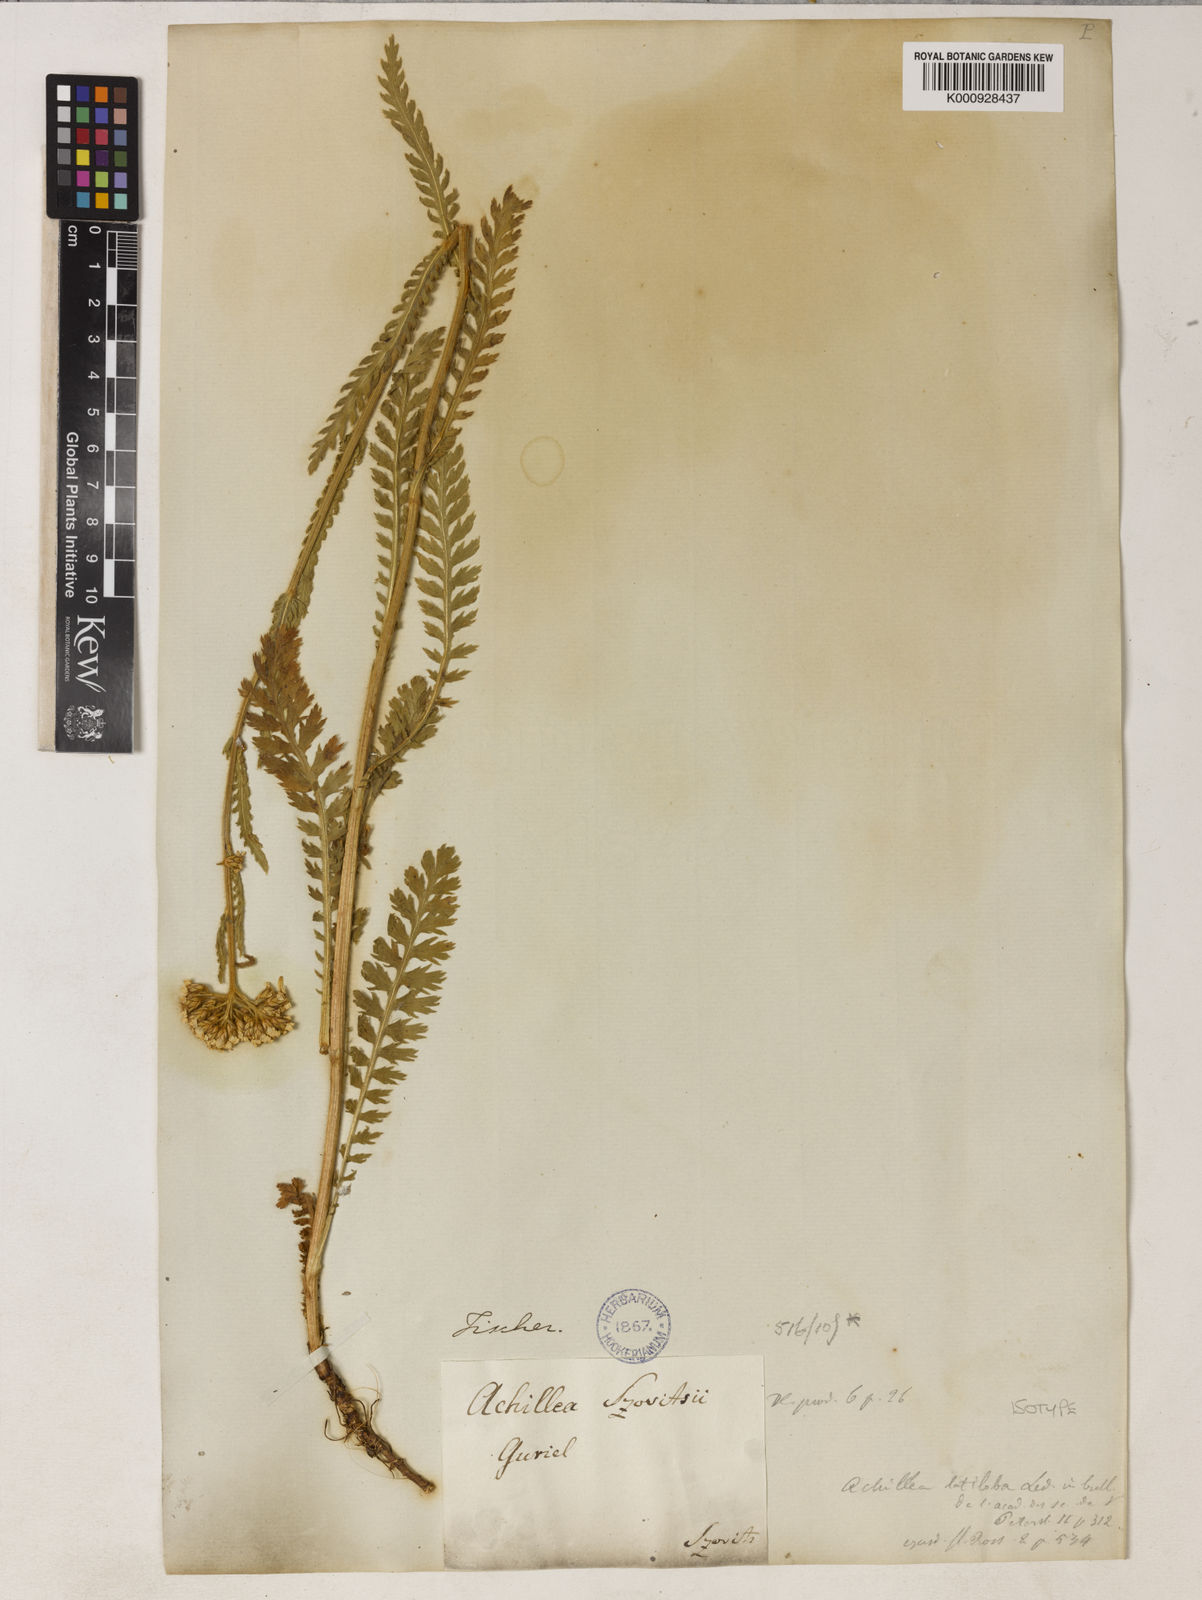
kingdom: Plantae
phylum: Tracheophyta
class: Magnoliopsida
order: Asterales
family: Asteraceae
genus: Achillea
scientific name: Achillea latiloba
